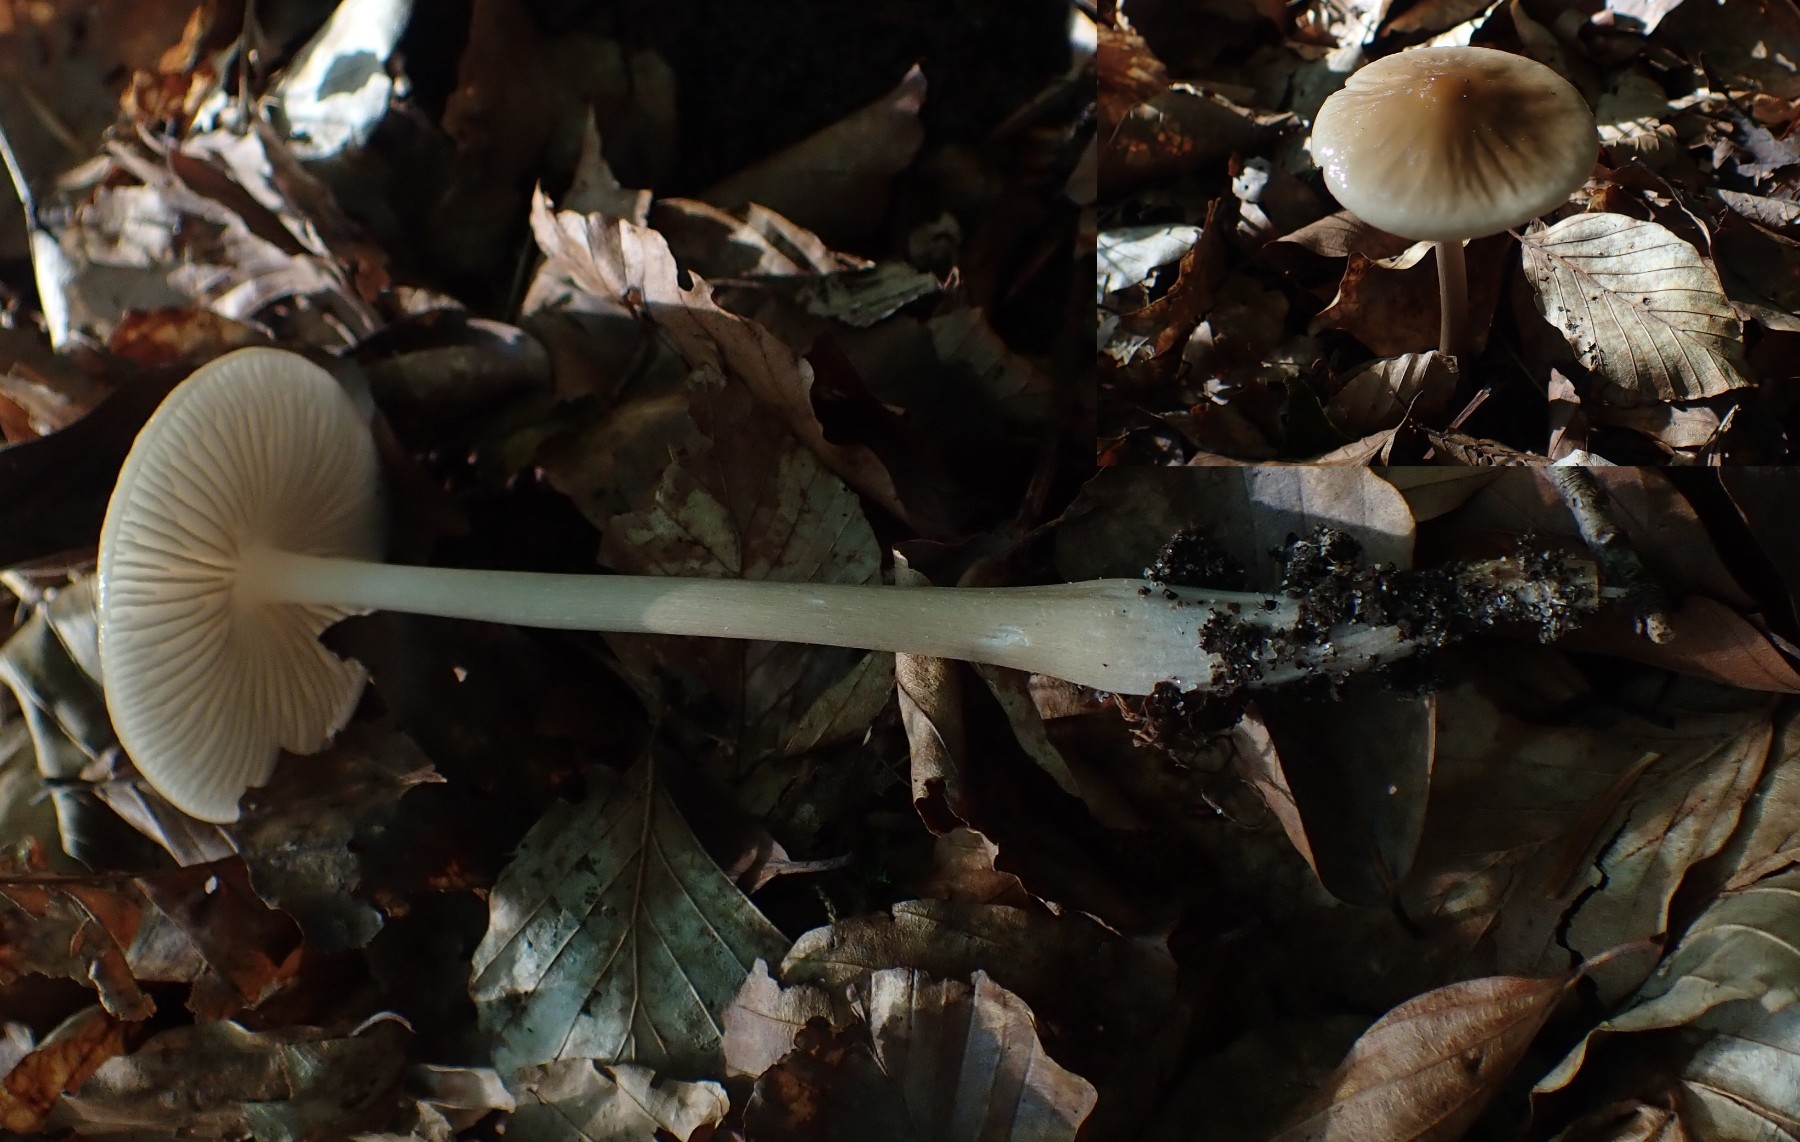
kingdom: Fungi
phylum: Basidiomycota
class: Agaricomycetes
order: Agaricales
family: Physalacriaceae
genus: Hymenopellis
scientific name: Hymenopellis radicata
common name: almindelig pælerodshat
